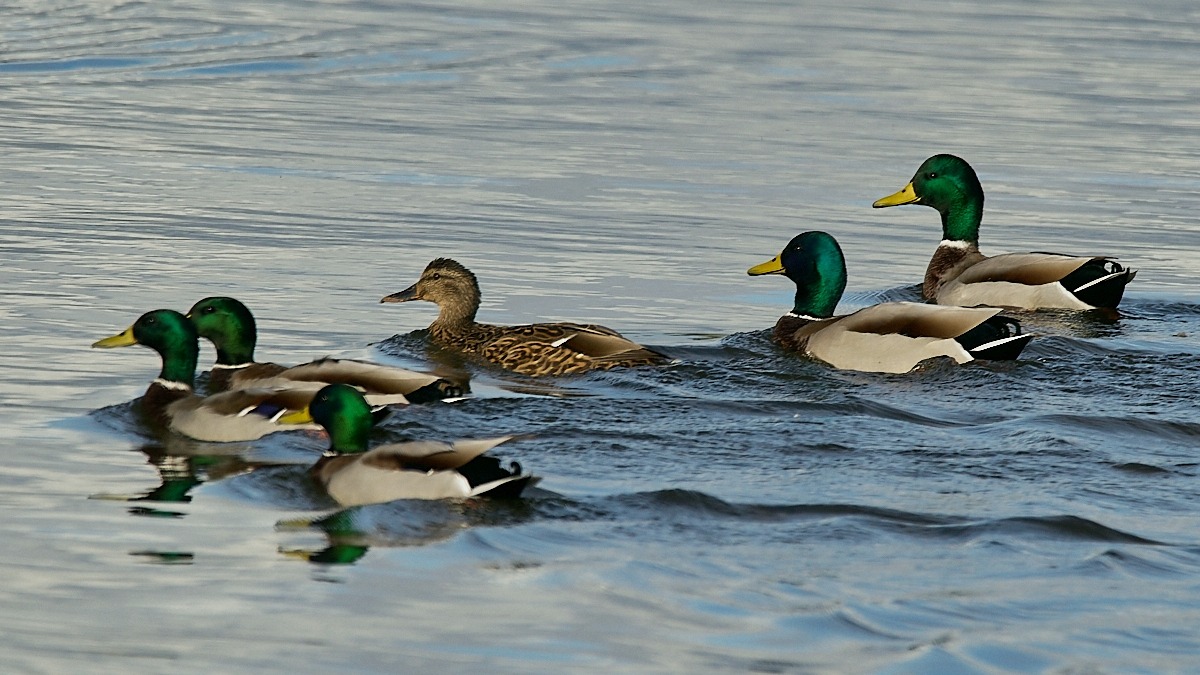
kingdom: Animalia
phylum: Chordata
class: Aves
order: Anseriformes
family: Anatidae
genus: Anas
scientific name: Anas platyrhynchos
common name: Gråand
